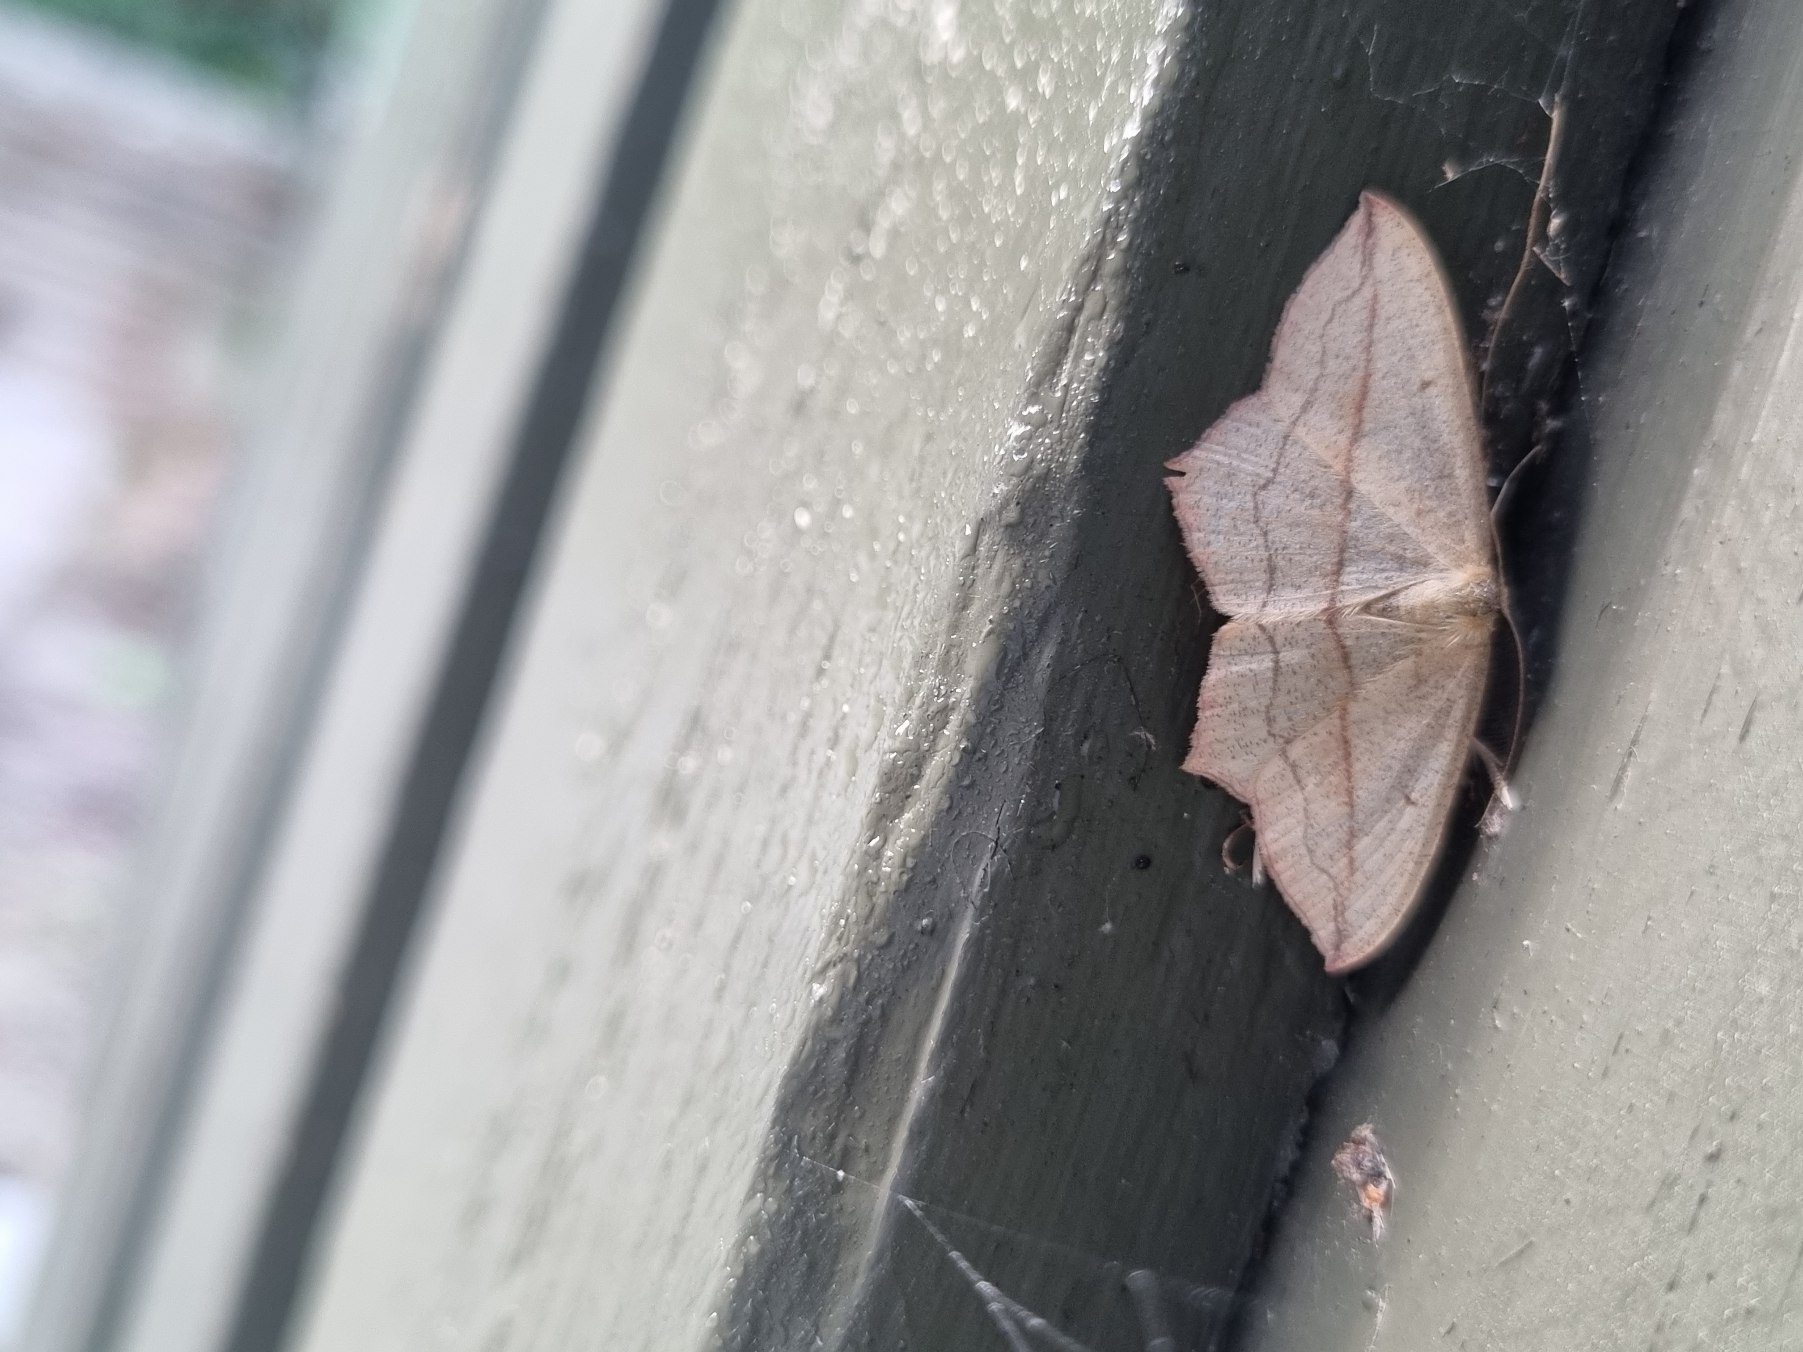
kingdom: Animalia
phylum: Arthropoda
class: Insecta
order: Lepidoptera
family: Geometridae
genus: Timandra
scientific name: Timandra comae
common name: Gul syremåler
